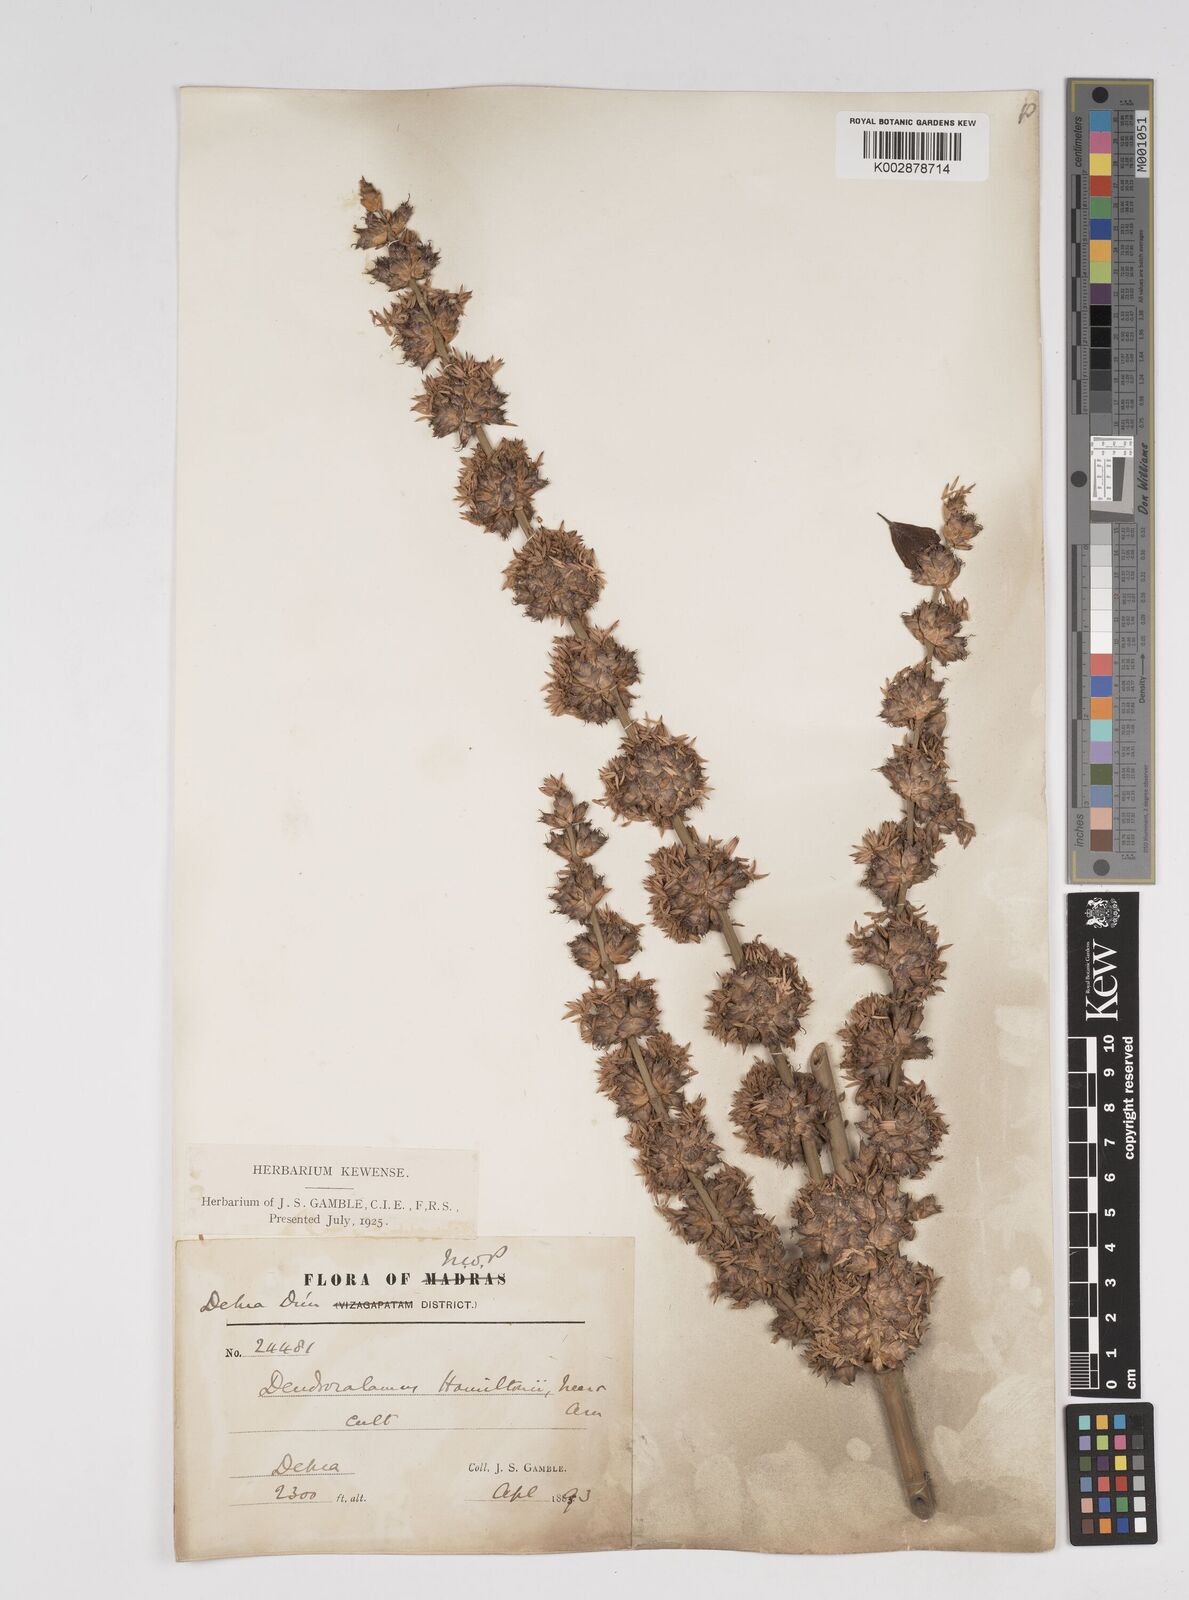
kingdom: Plantae
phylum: Tracheophyta
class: Liliopsida
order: Poales
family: Poaceae
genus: Dendrocalamus
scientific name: Dendrocalamus hamiltonii
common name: Tama bamboo
